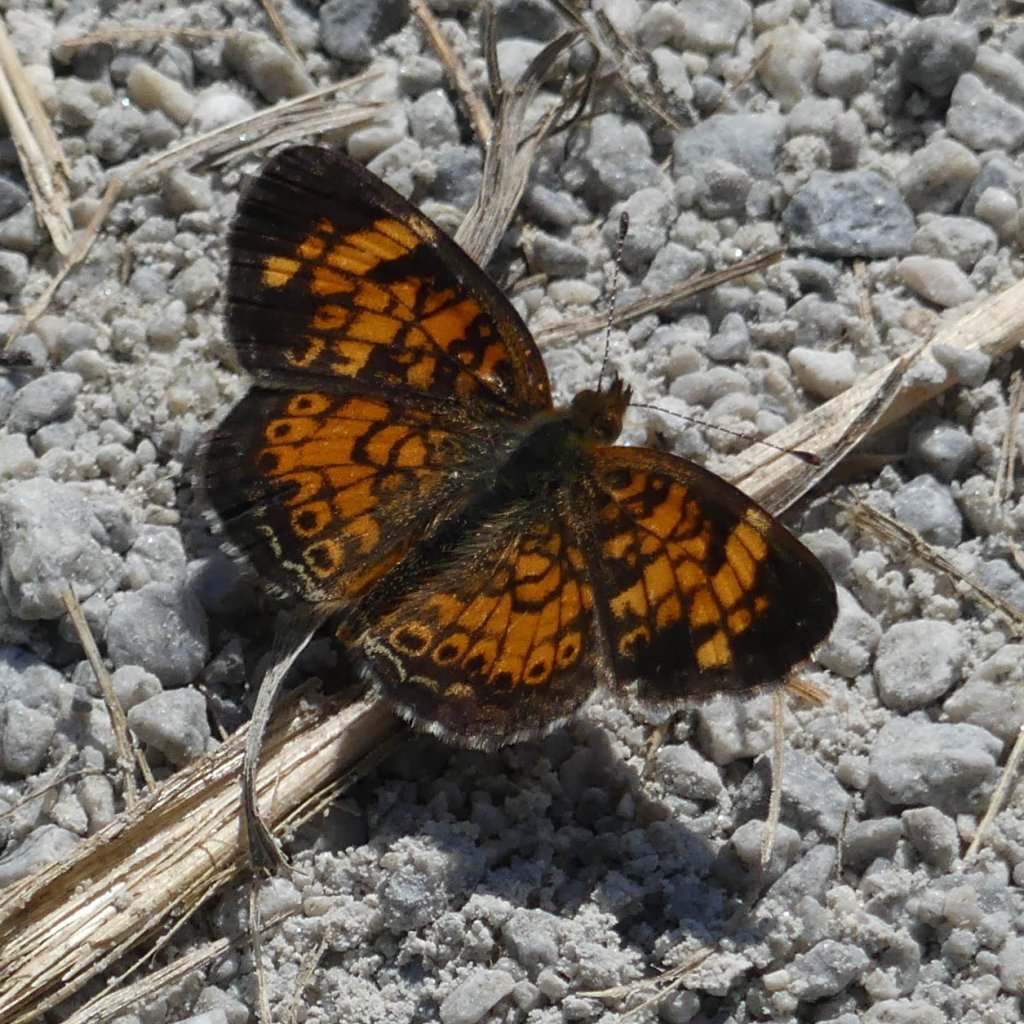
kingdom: Animalia
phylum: Arthropoda
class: Insecta
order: Lepidoptera
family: Nymphalidae
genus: Phyciodes
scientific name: Phyciodes tharos
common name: Pearl Crescent
